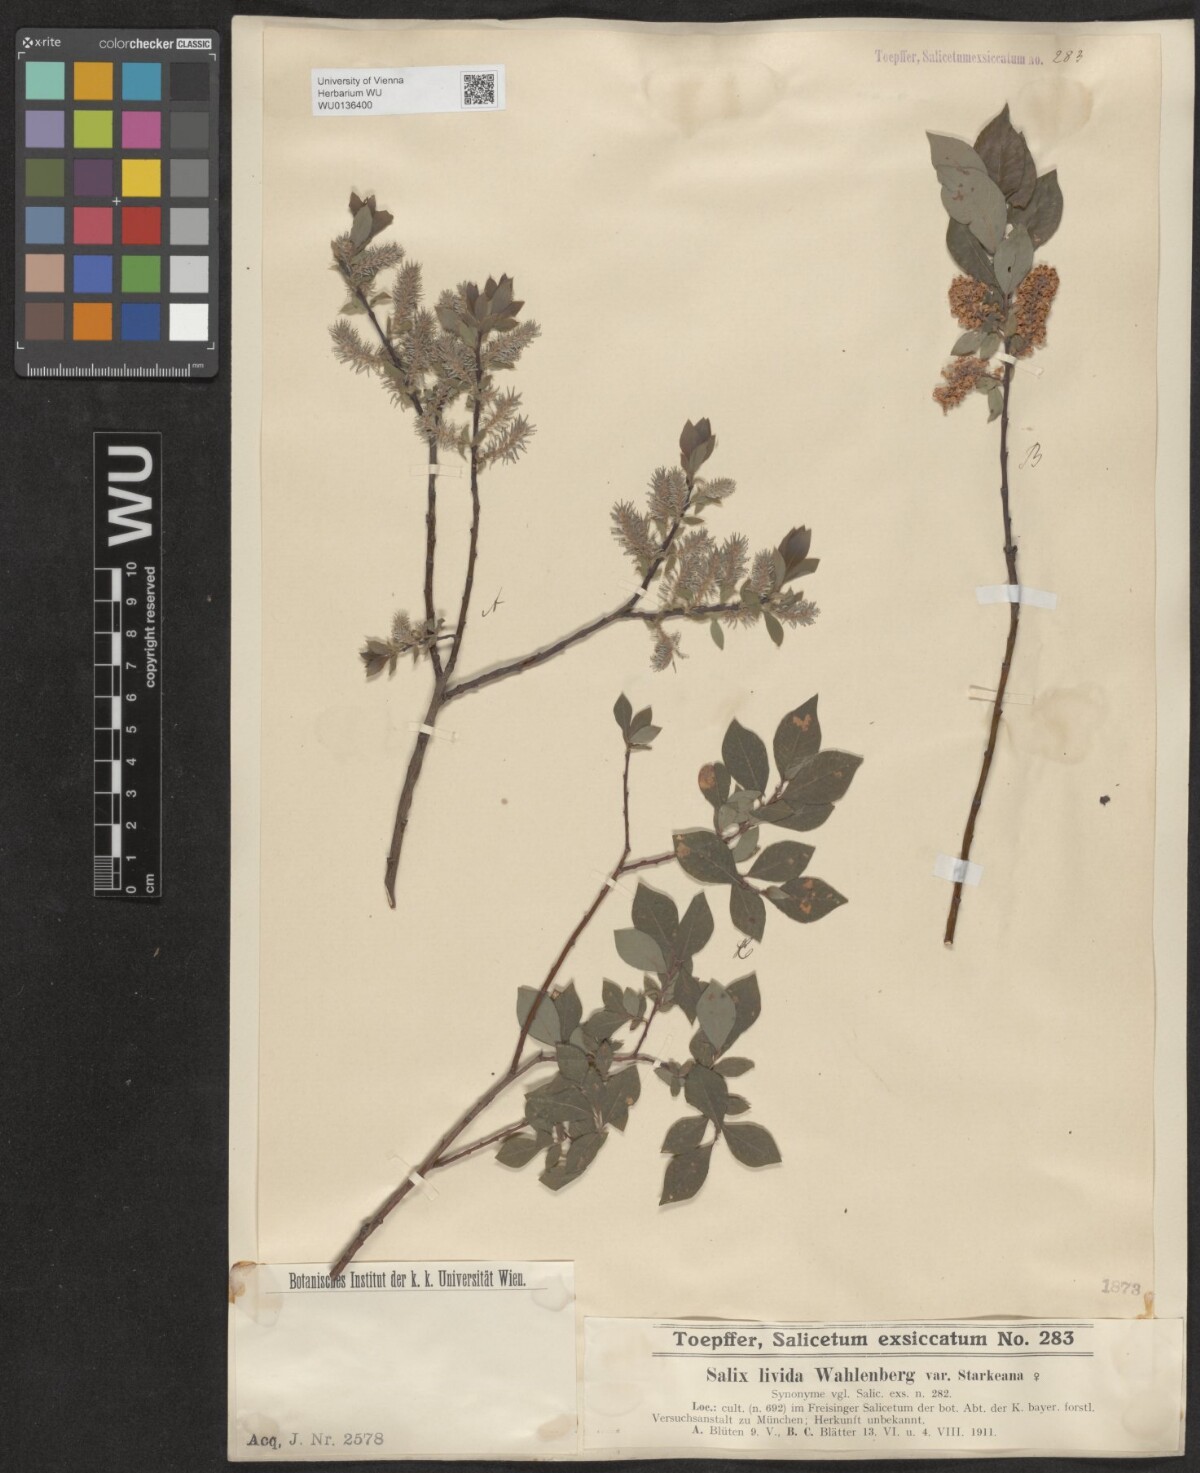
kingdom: Plantae
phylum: Tracheophyta
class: Magnoliopsida
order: Malpighiales
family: Salicaceae
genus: Salix
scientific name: Salix lanata
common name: Woolly willow
